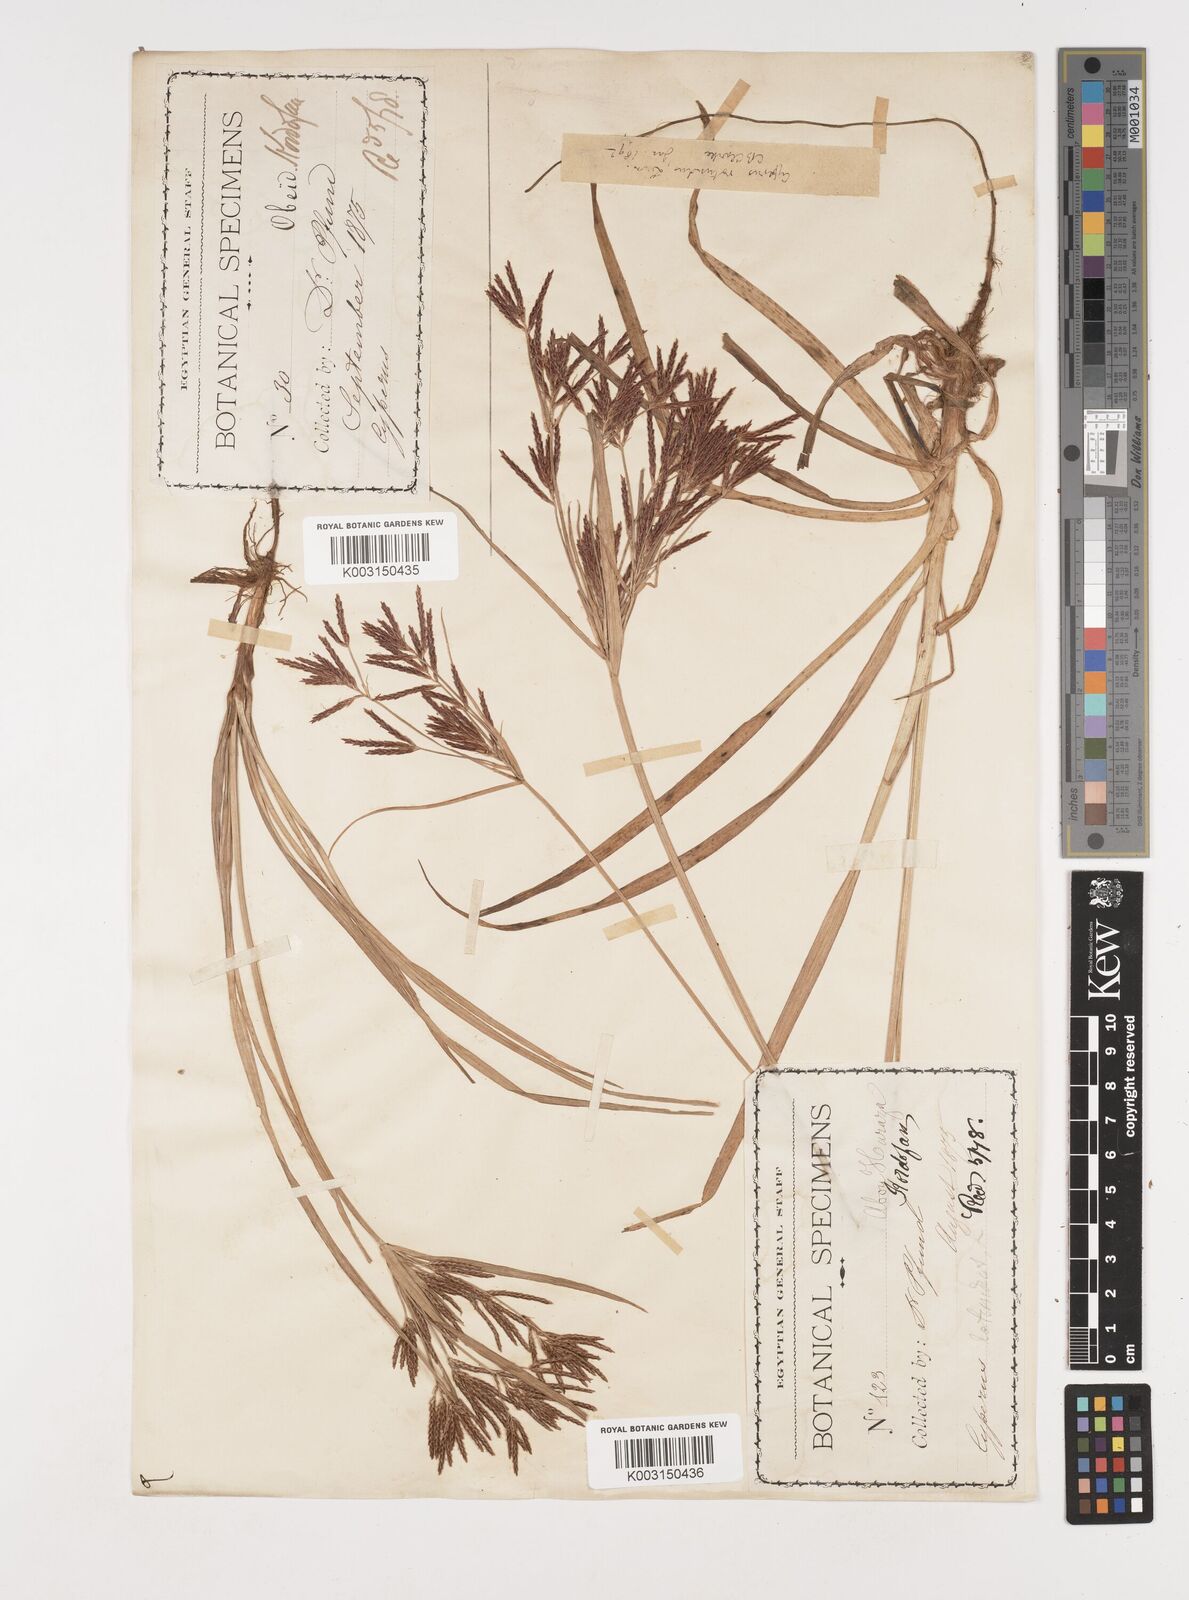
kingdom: Plantae
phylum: Tracheophyta
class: Liliopsida
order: Poales
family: Cyperaceae
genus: Cyperus
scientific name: Cyperus rotundus
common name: Nutgrass
